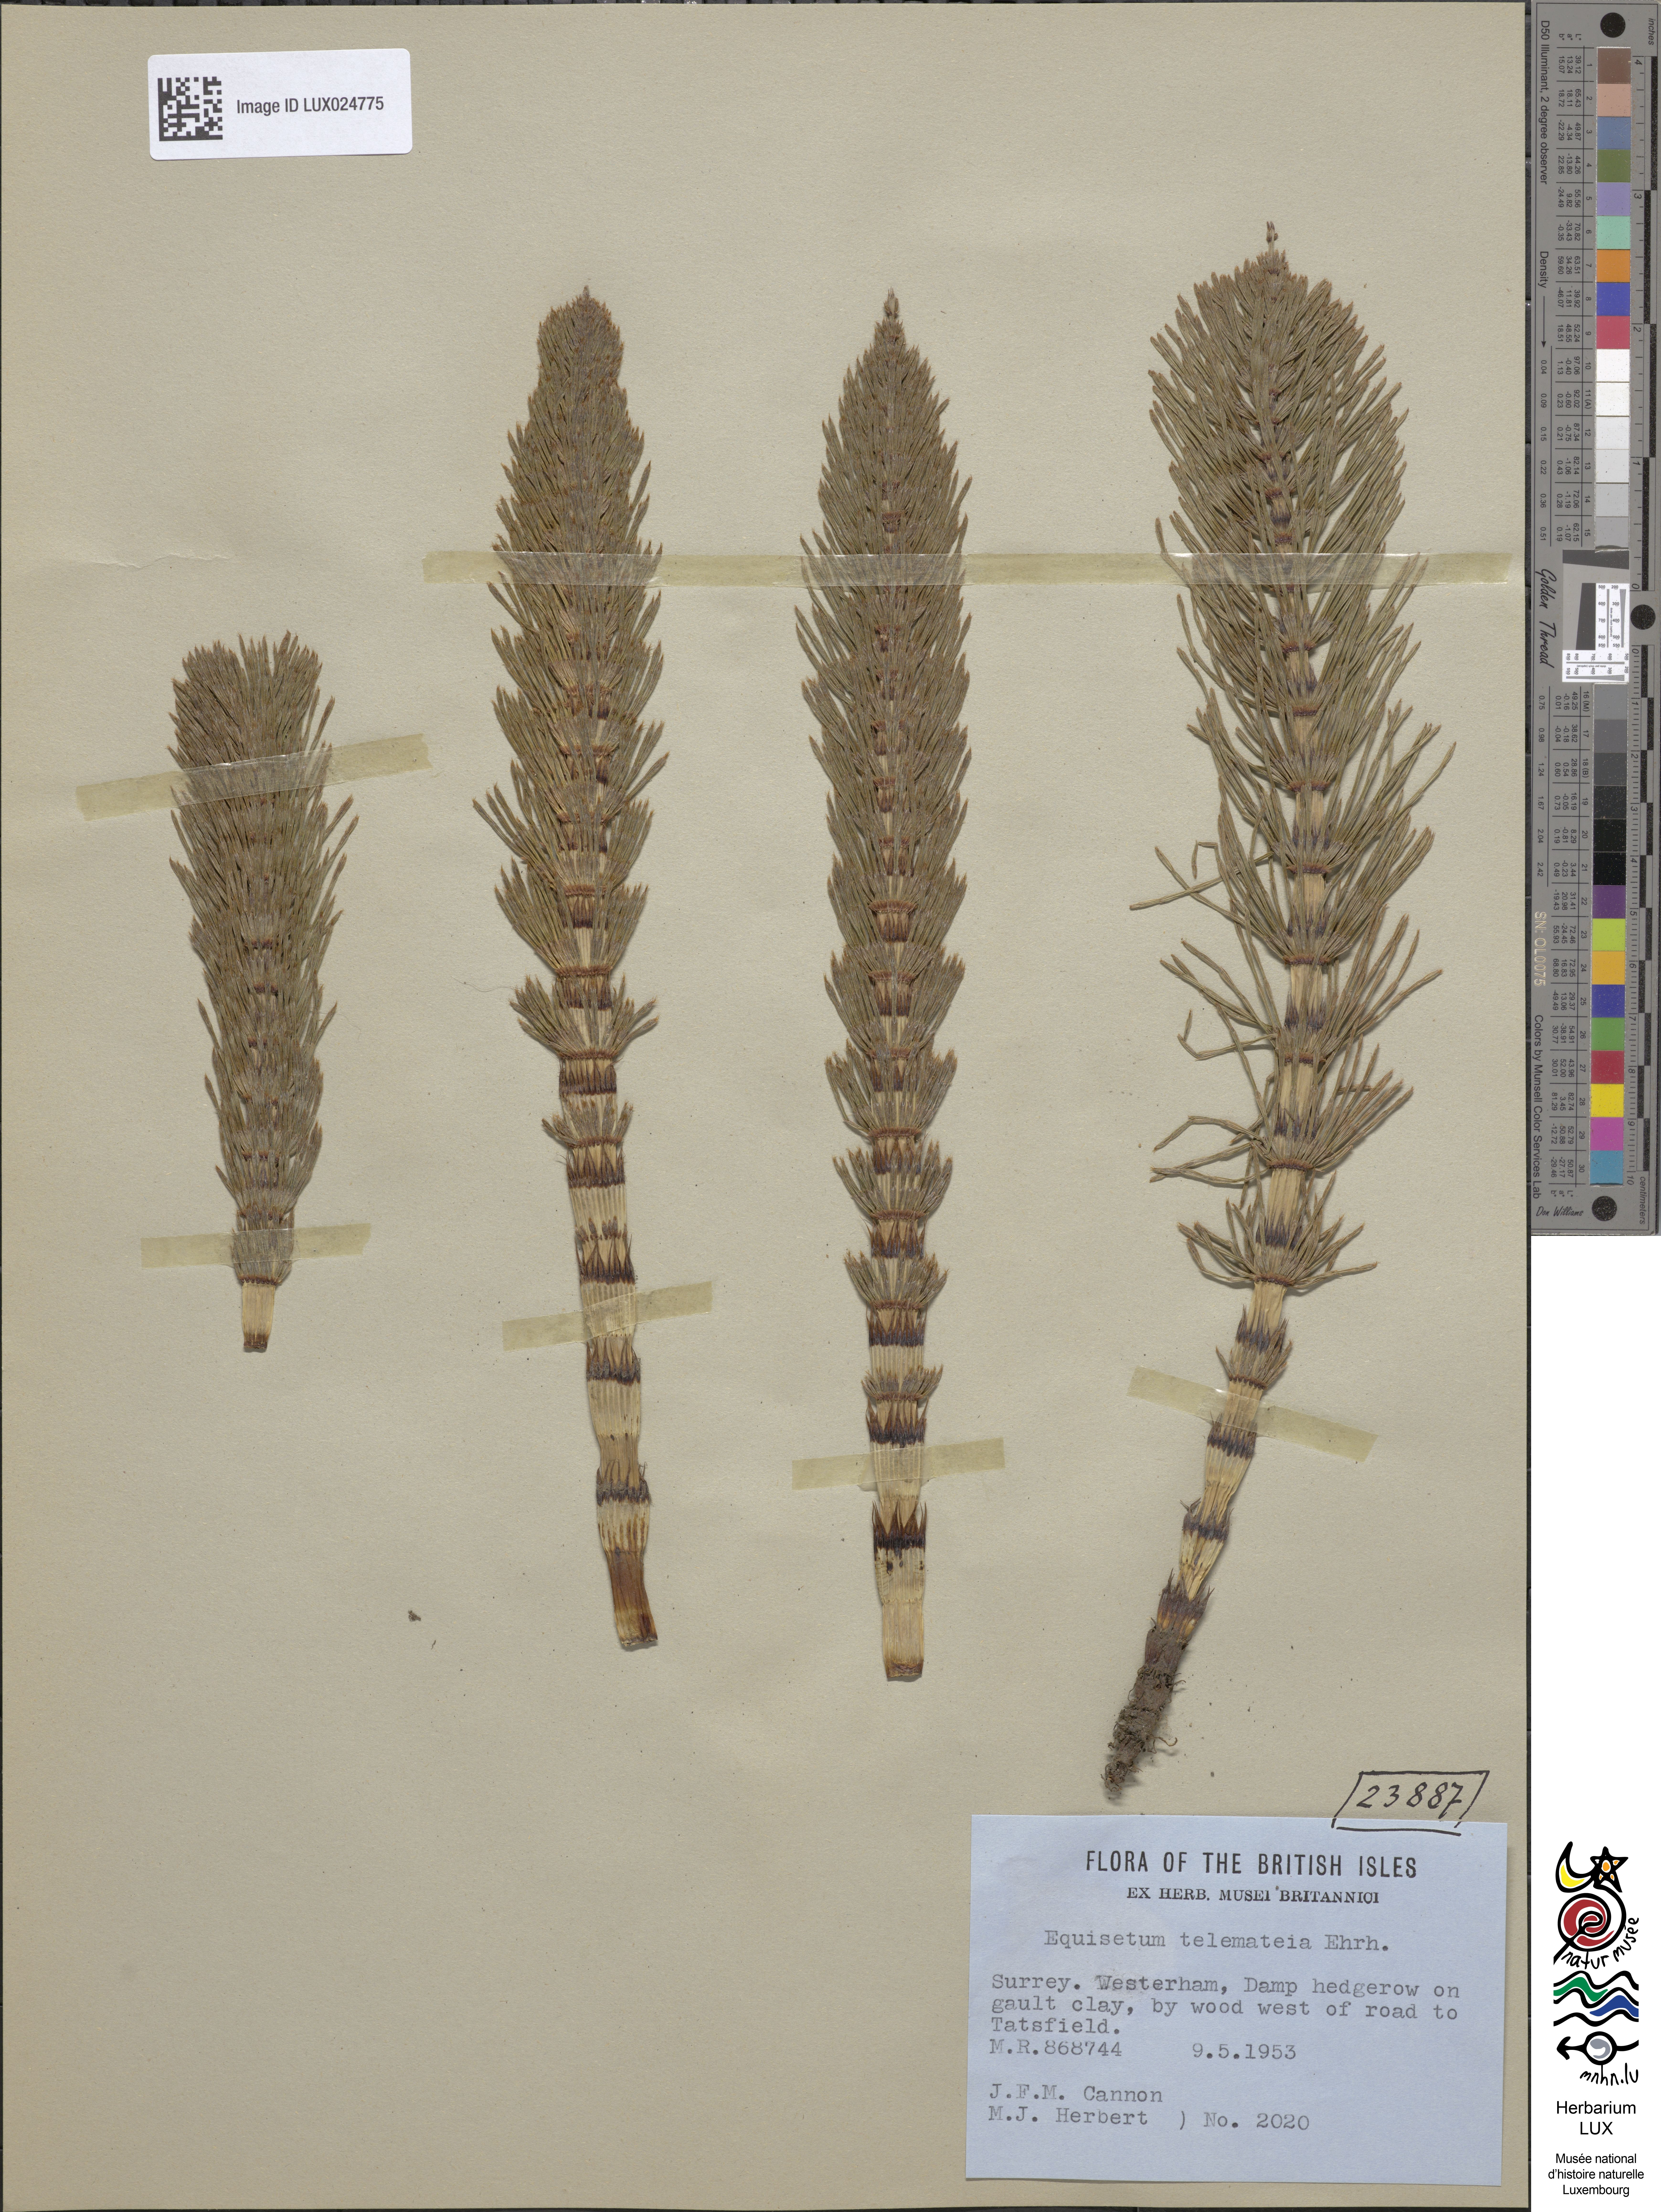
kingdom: Plantae
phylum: Tracheophyta
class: Polypodiopsida
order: Equisetales
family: Equisetaceae
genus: Equisetum
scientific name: Equisetum telmateia
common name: Great horsetail
